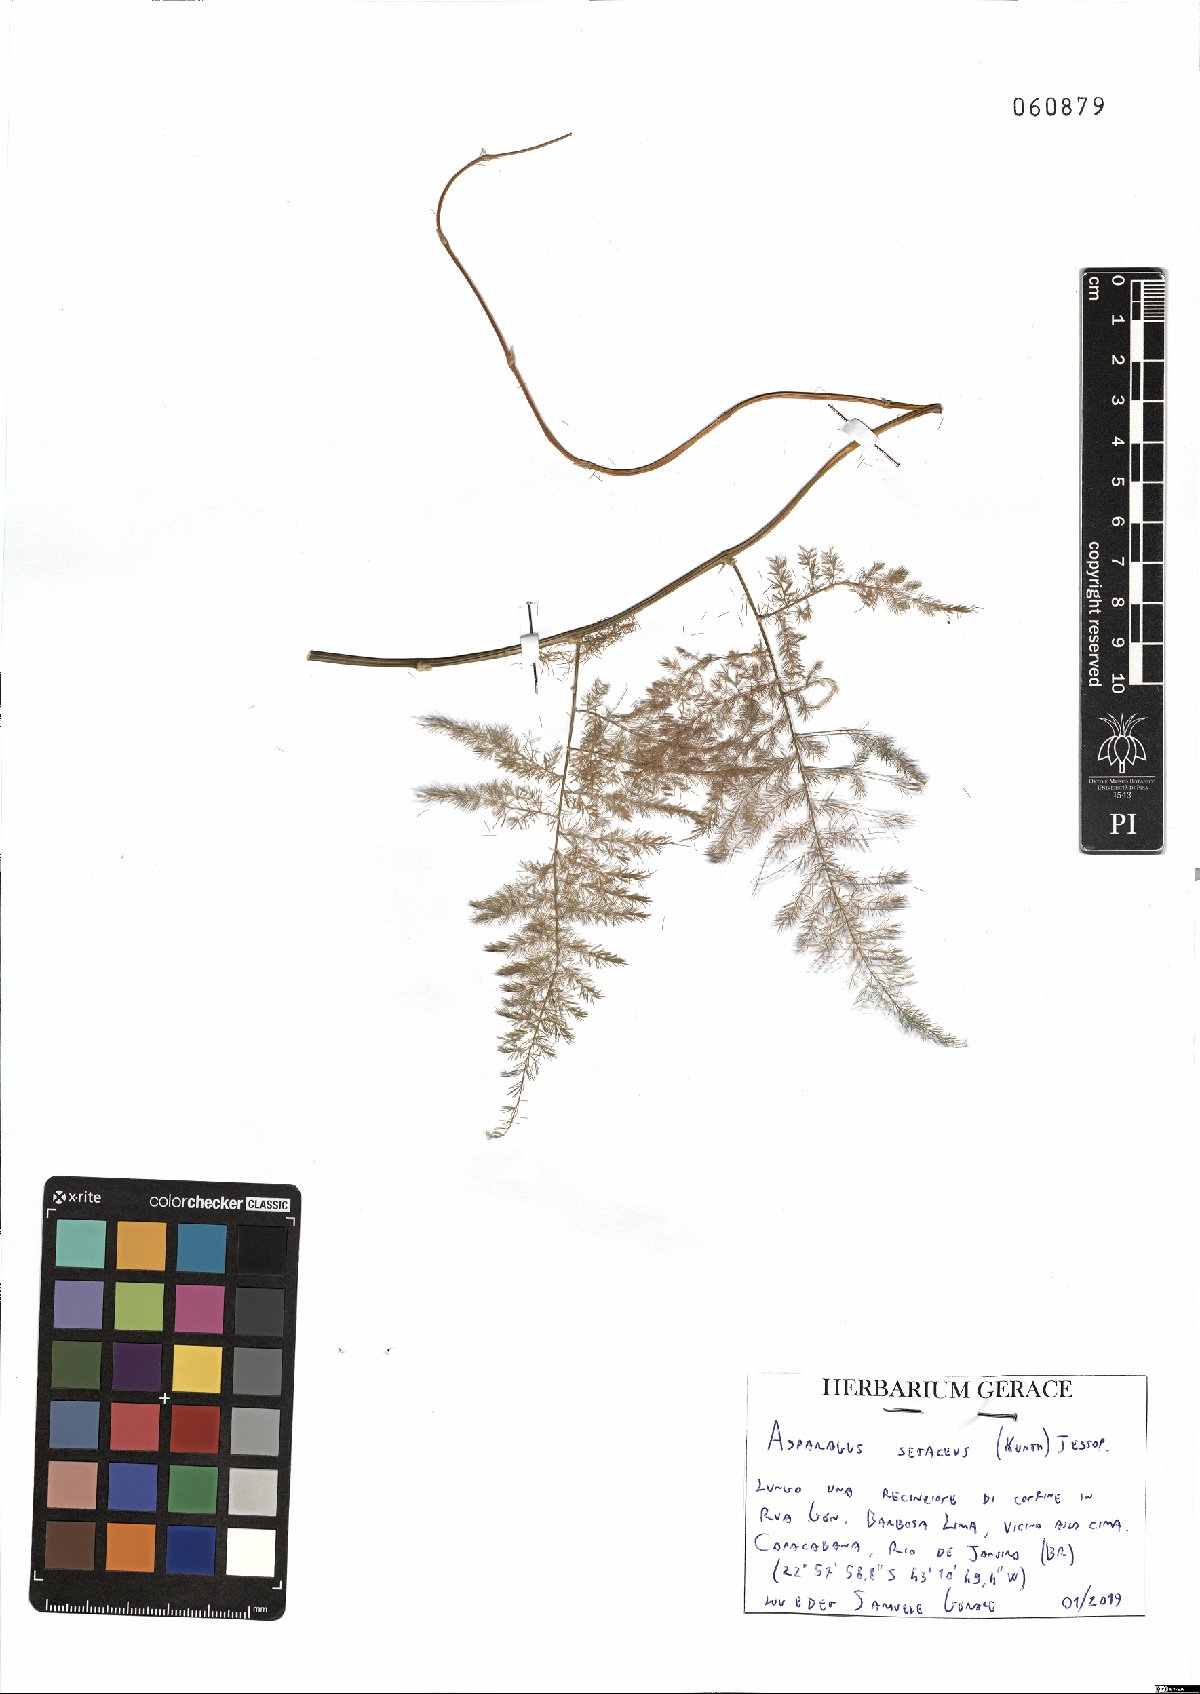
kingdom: Plantae
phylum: Tracheophyta
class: Liliopsida
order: Asparagales
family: Asparagaceae
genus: Asparagus
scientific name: Asparagus setaceus
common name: Common asparagus fern
